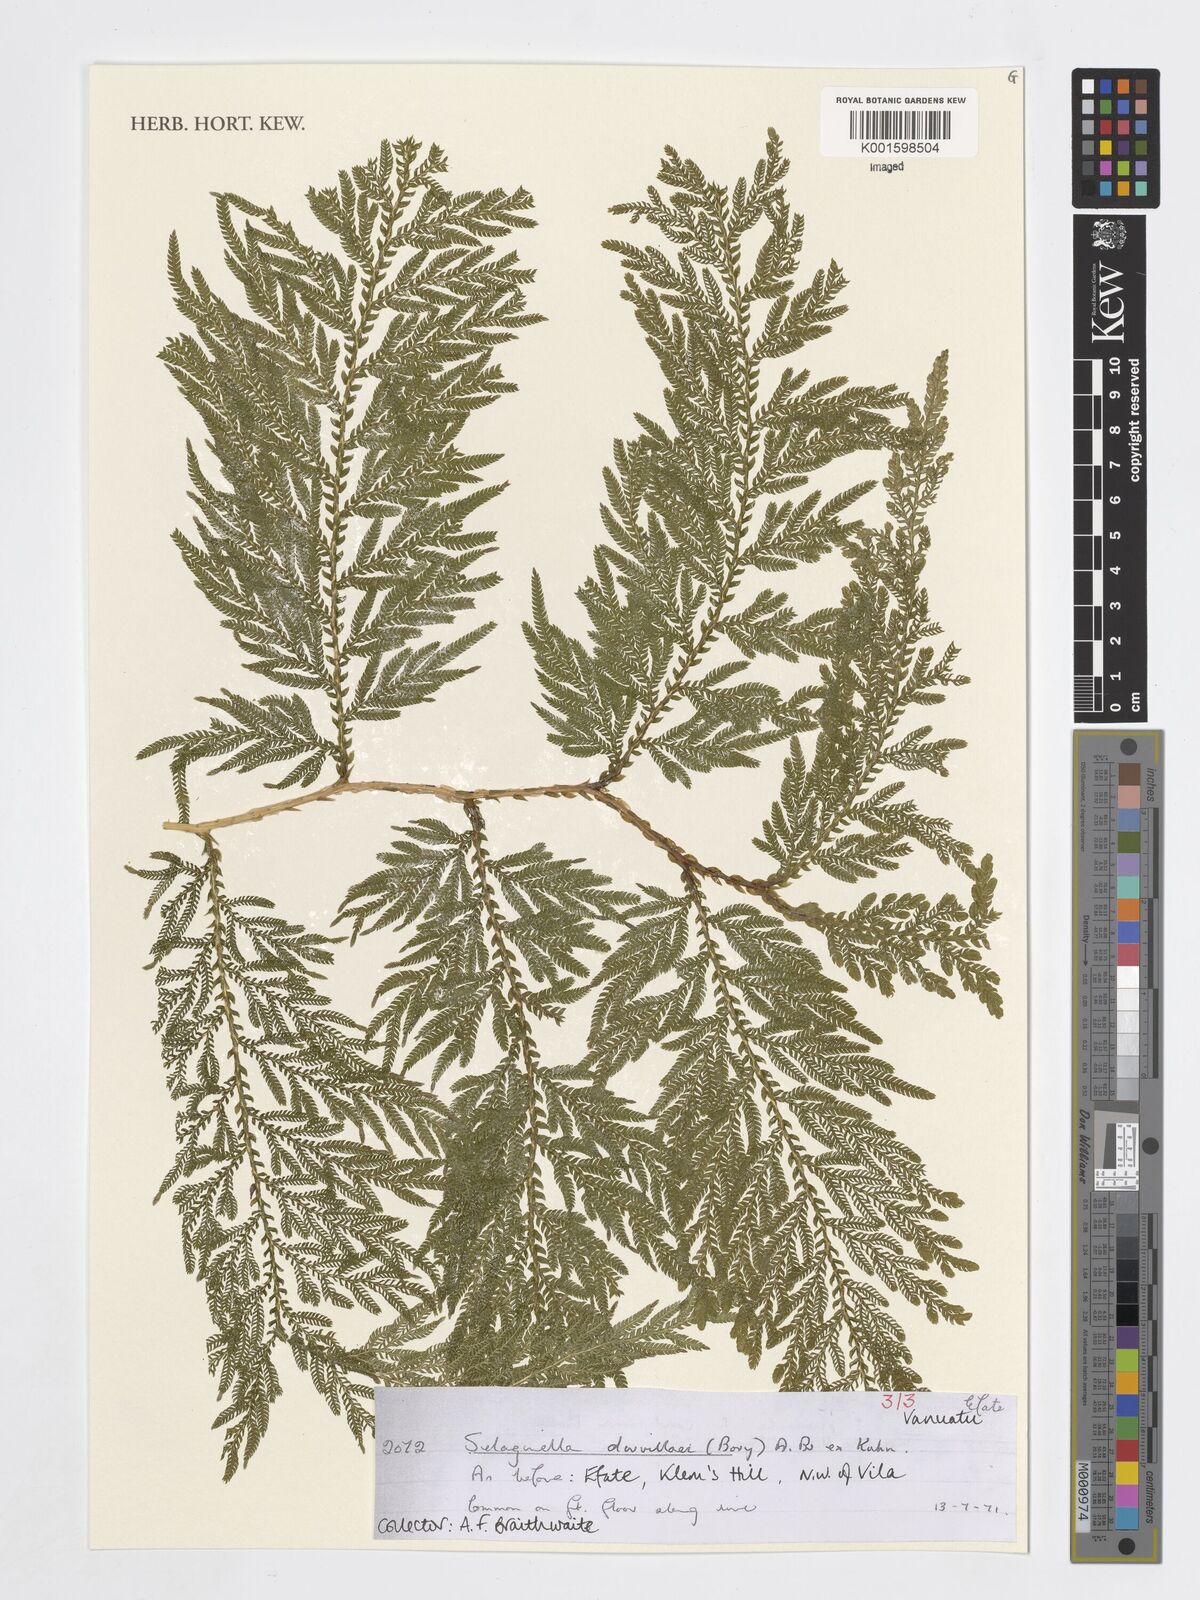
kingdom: Plantae
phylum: Tracheophyta
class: Lycopodiopsida
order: Selaginellales
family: Selaginellaceae
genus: Selaginella
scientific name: Selaginella
